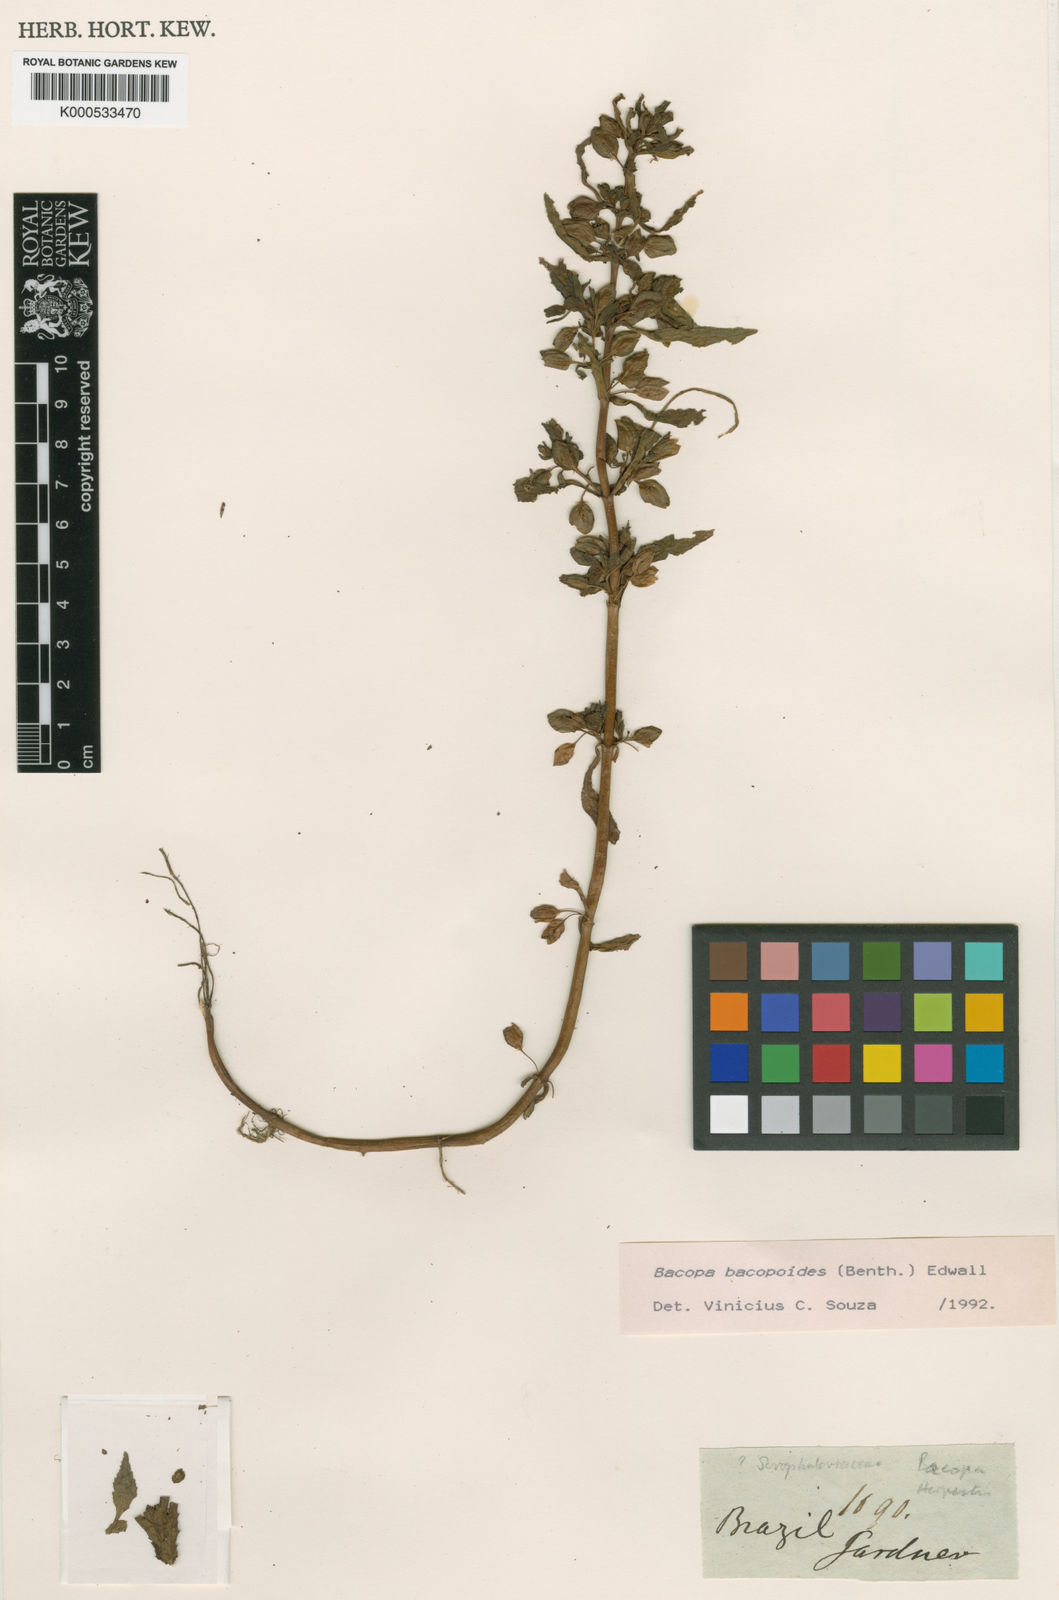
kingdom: Plantae
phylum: Tracheophyta
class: Magnoliopsida
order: Lamiales
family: Plantaginaceae
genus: Bacopa
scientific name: Bacopa aquatica
